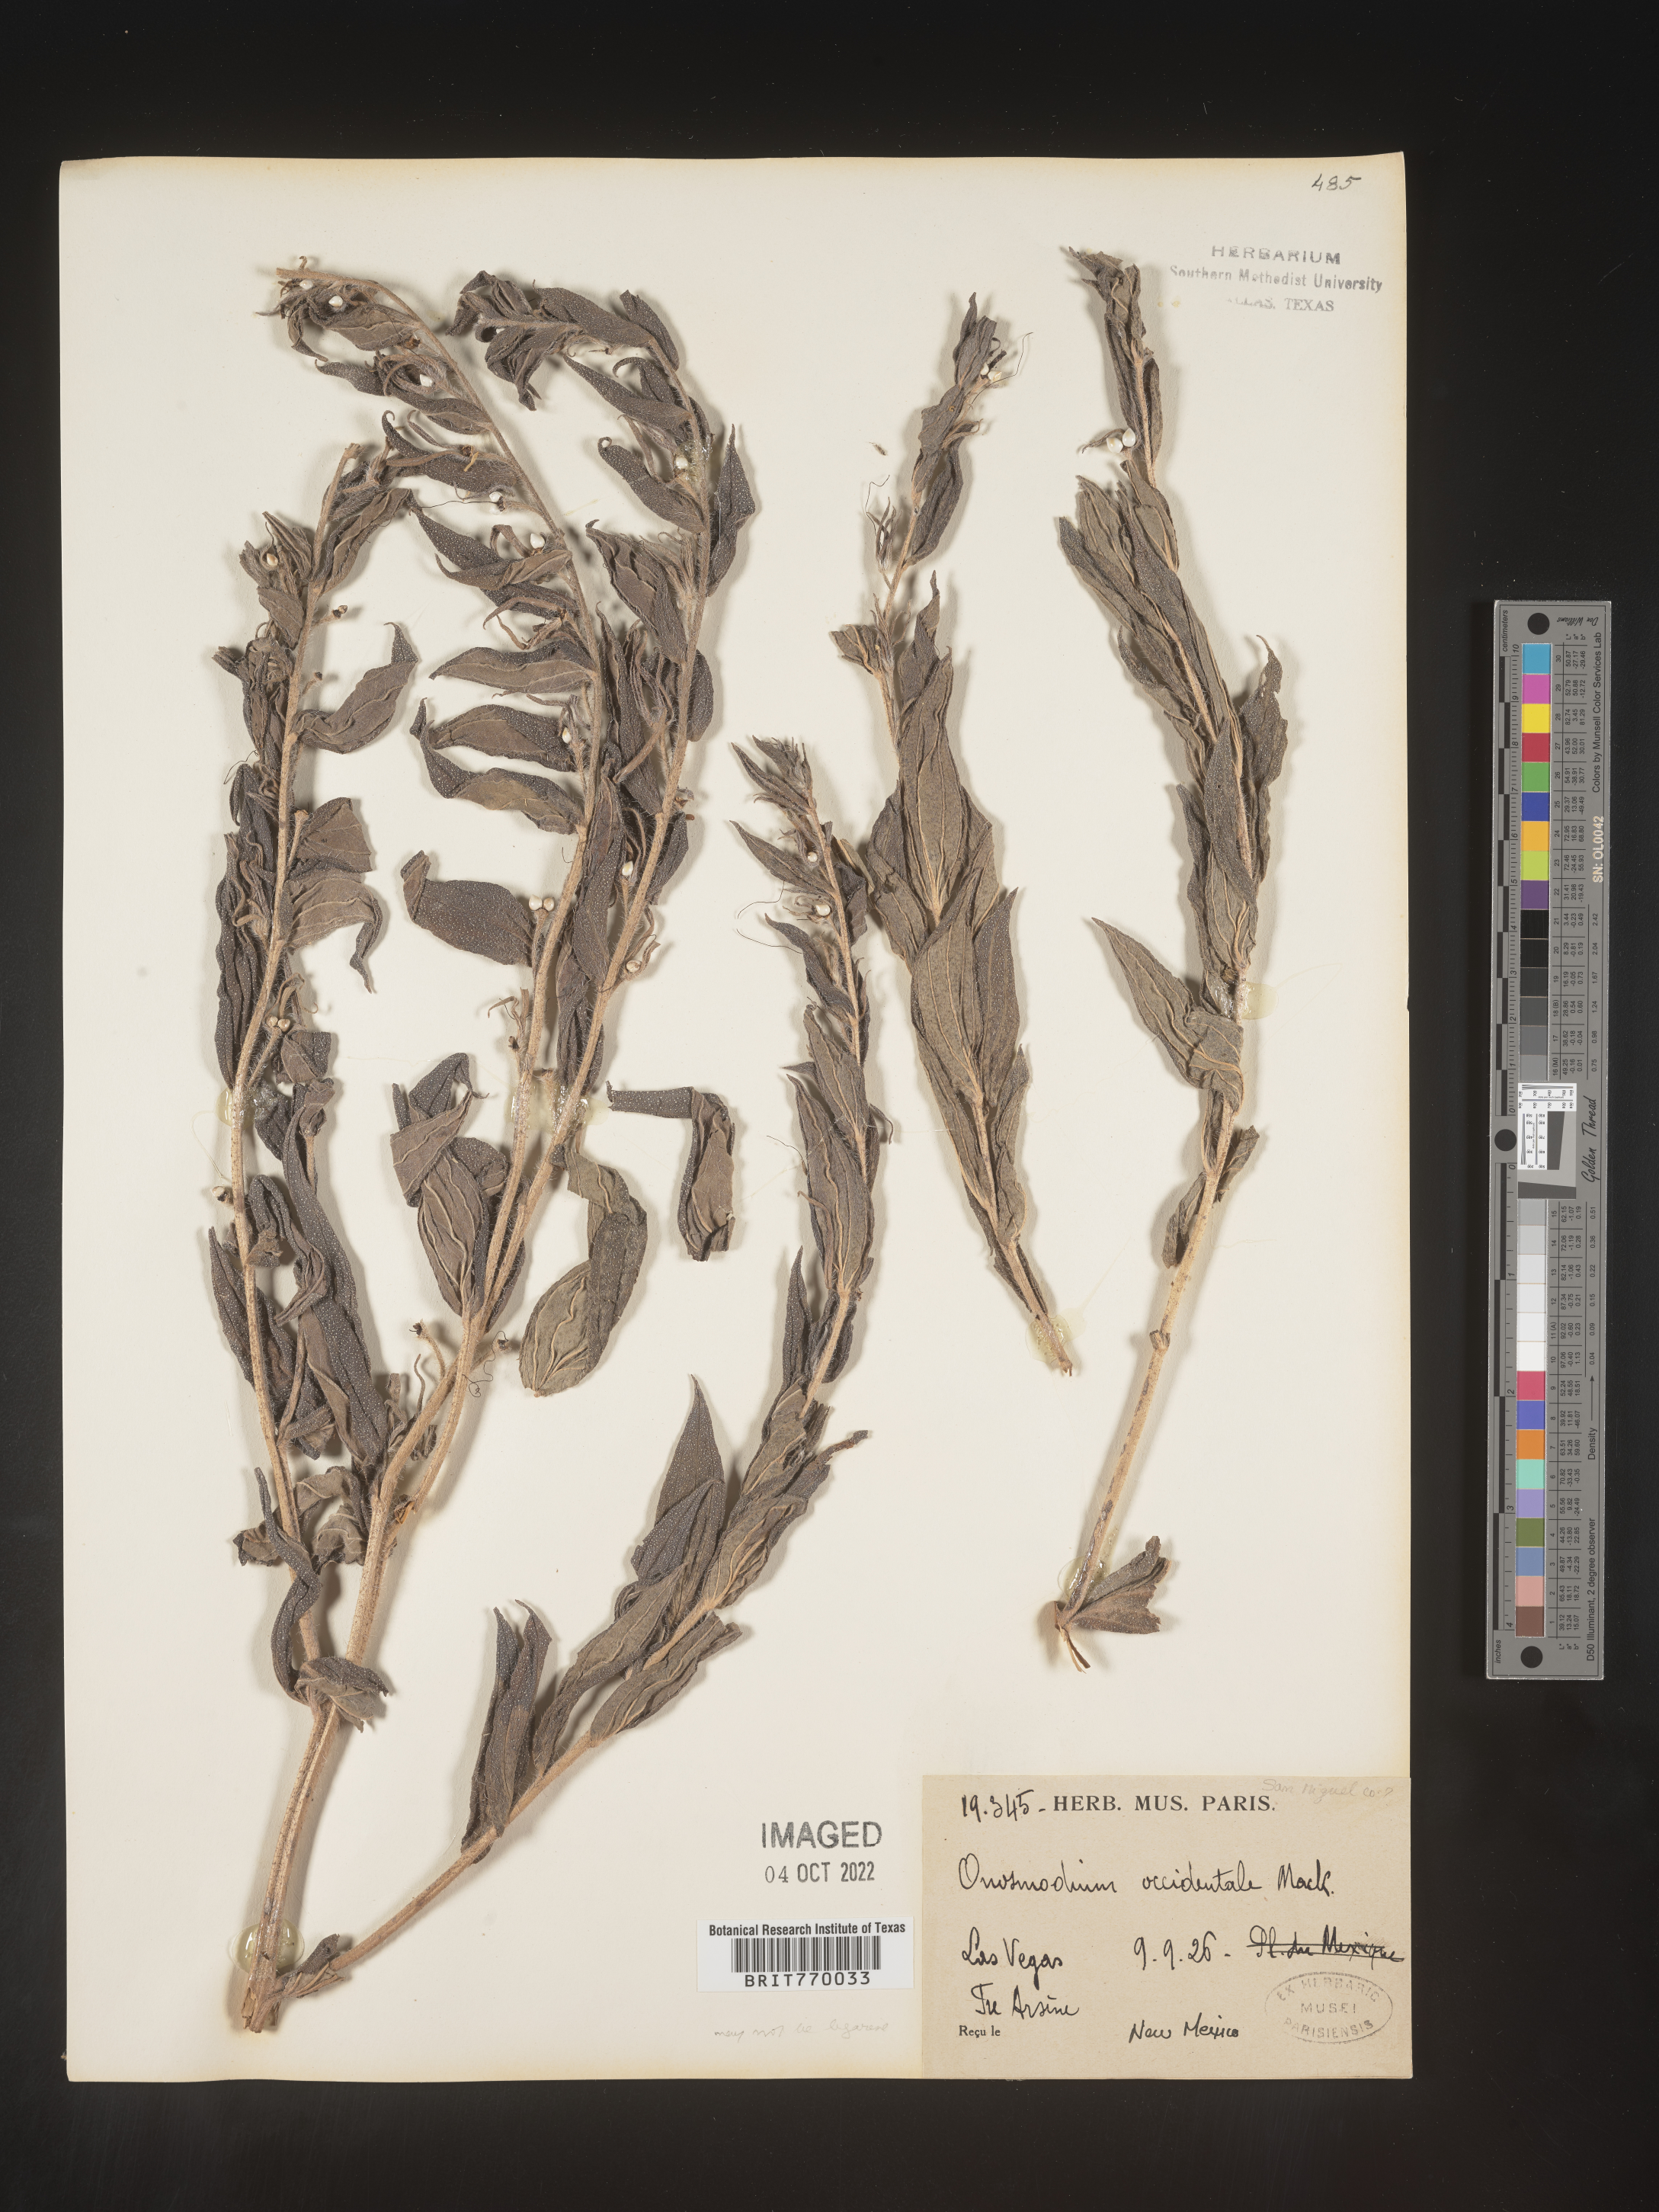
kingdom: Plantae
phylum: Tracheophyta
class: Magnoliopsida
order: Boraginales
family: Boraginaceae
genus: Lithospermum
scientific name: Lithospermum occidentale
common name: Western false gromwell
